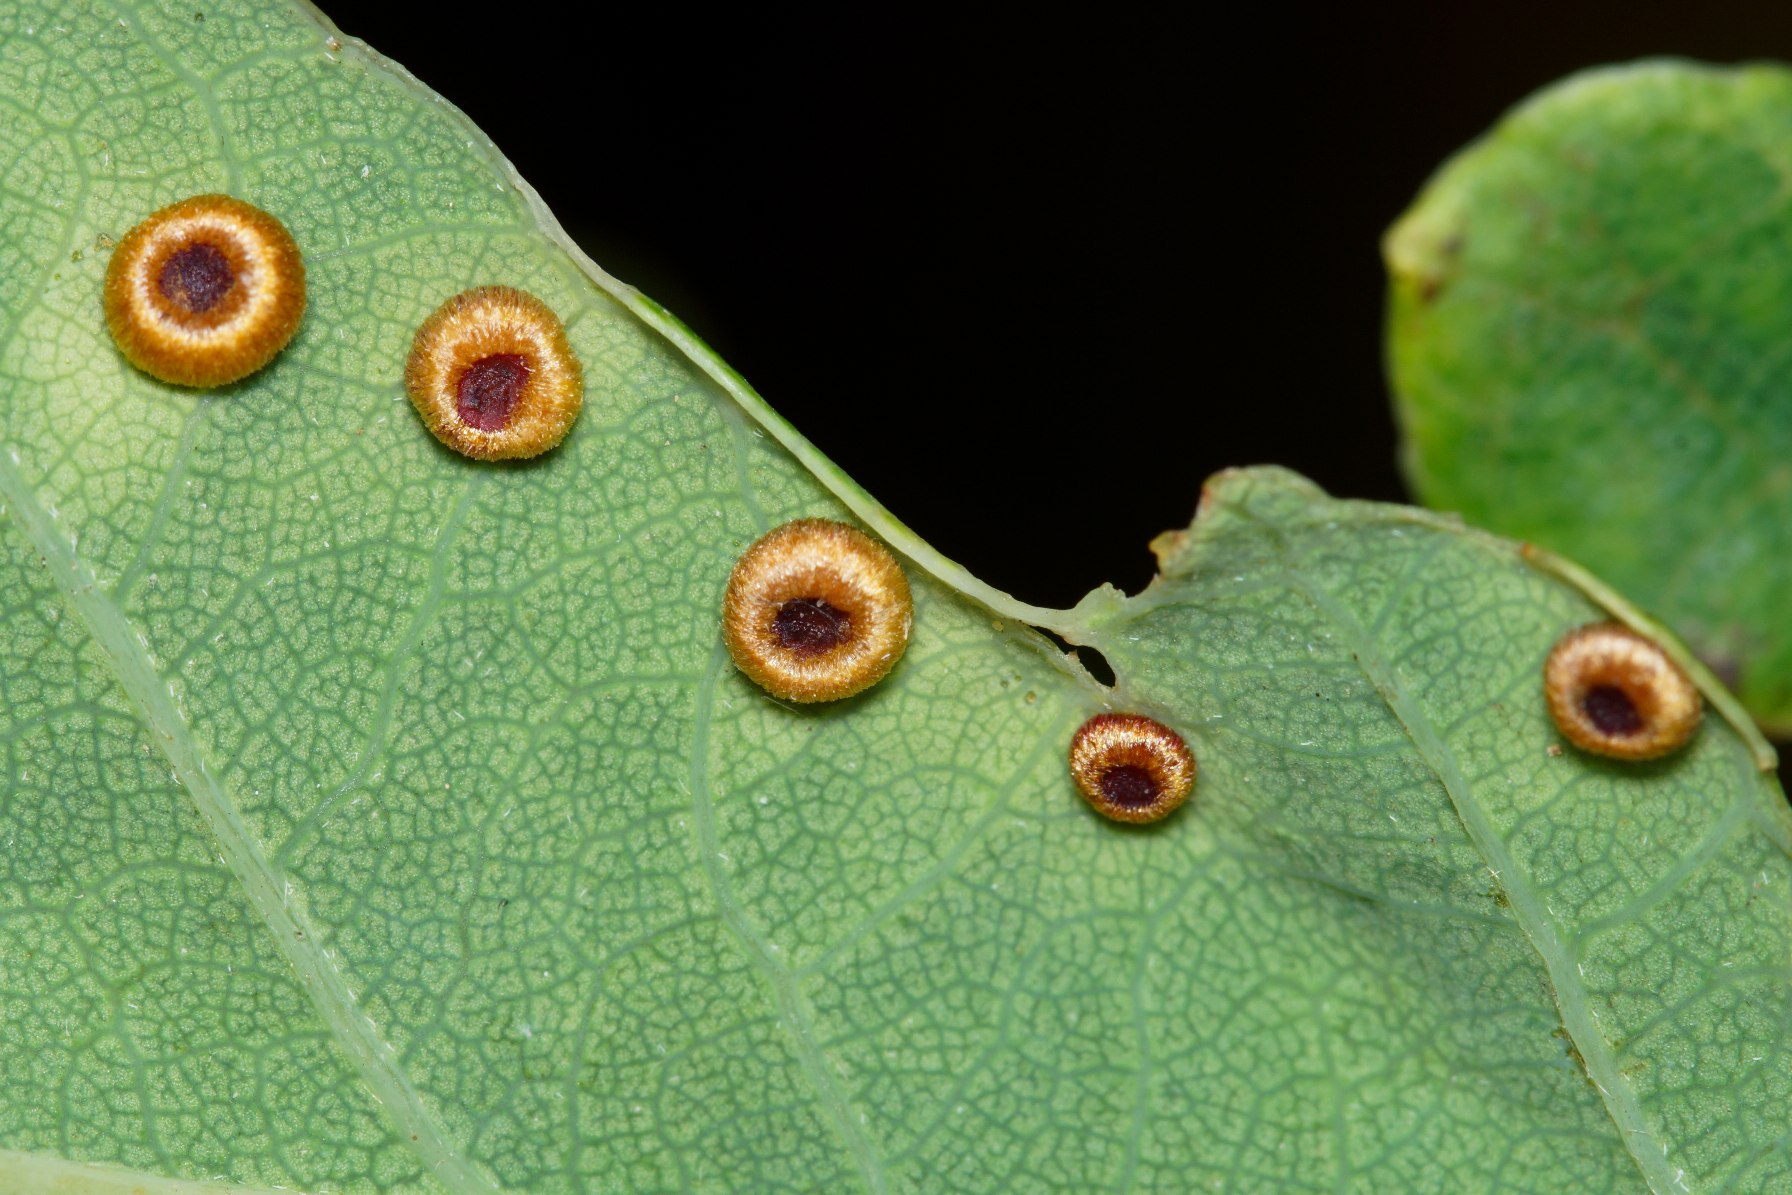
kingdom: Animalia
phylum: Arthropoda
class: Insecta
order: Hymenoptera
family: Cynipidae
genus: Neuroterus
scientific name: Neuroterus numismalis
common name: Knapgalhveps
